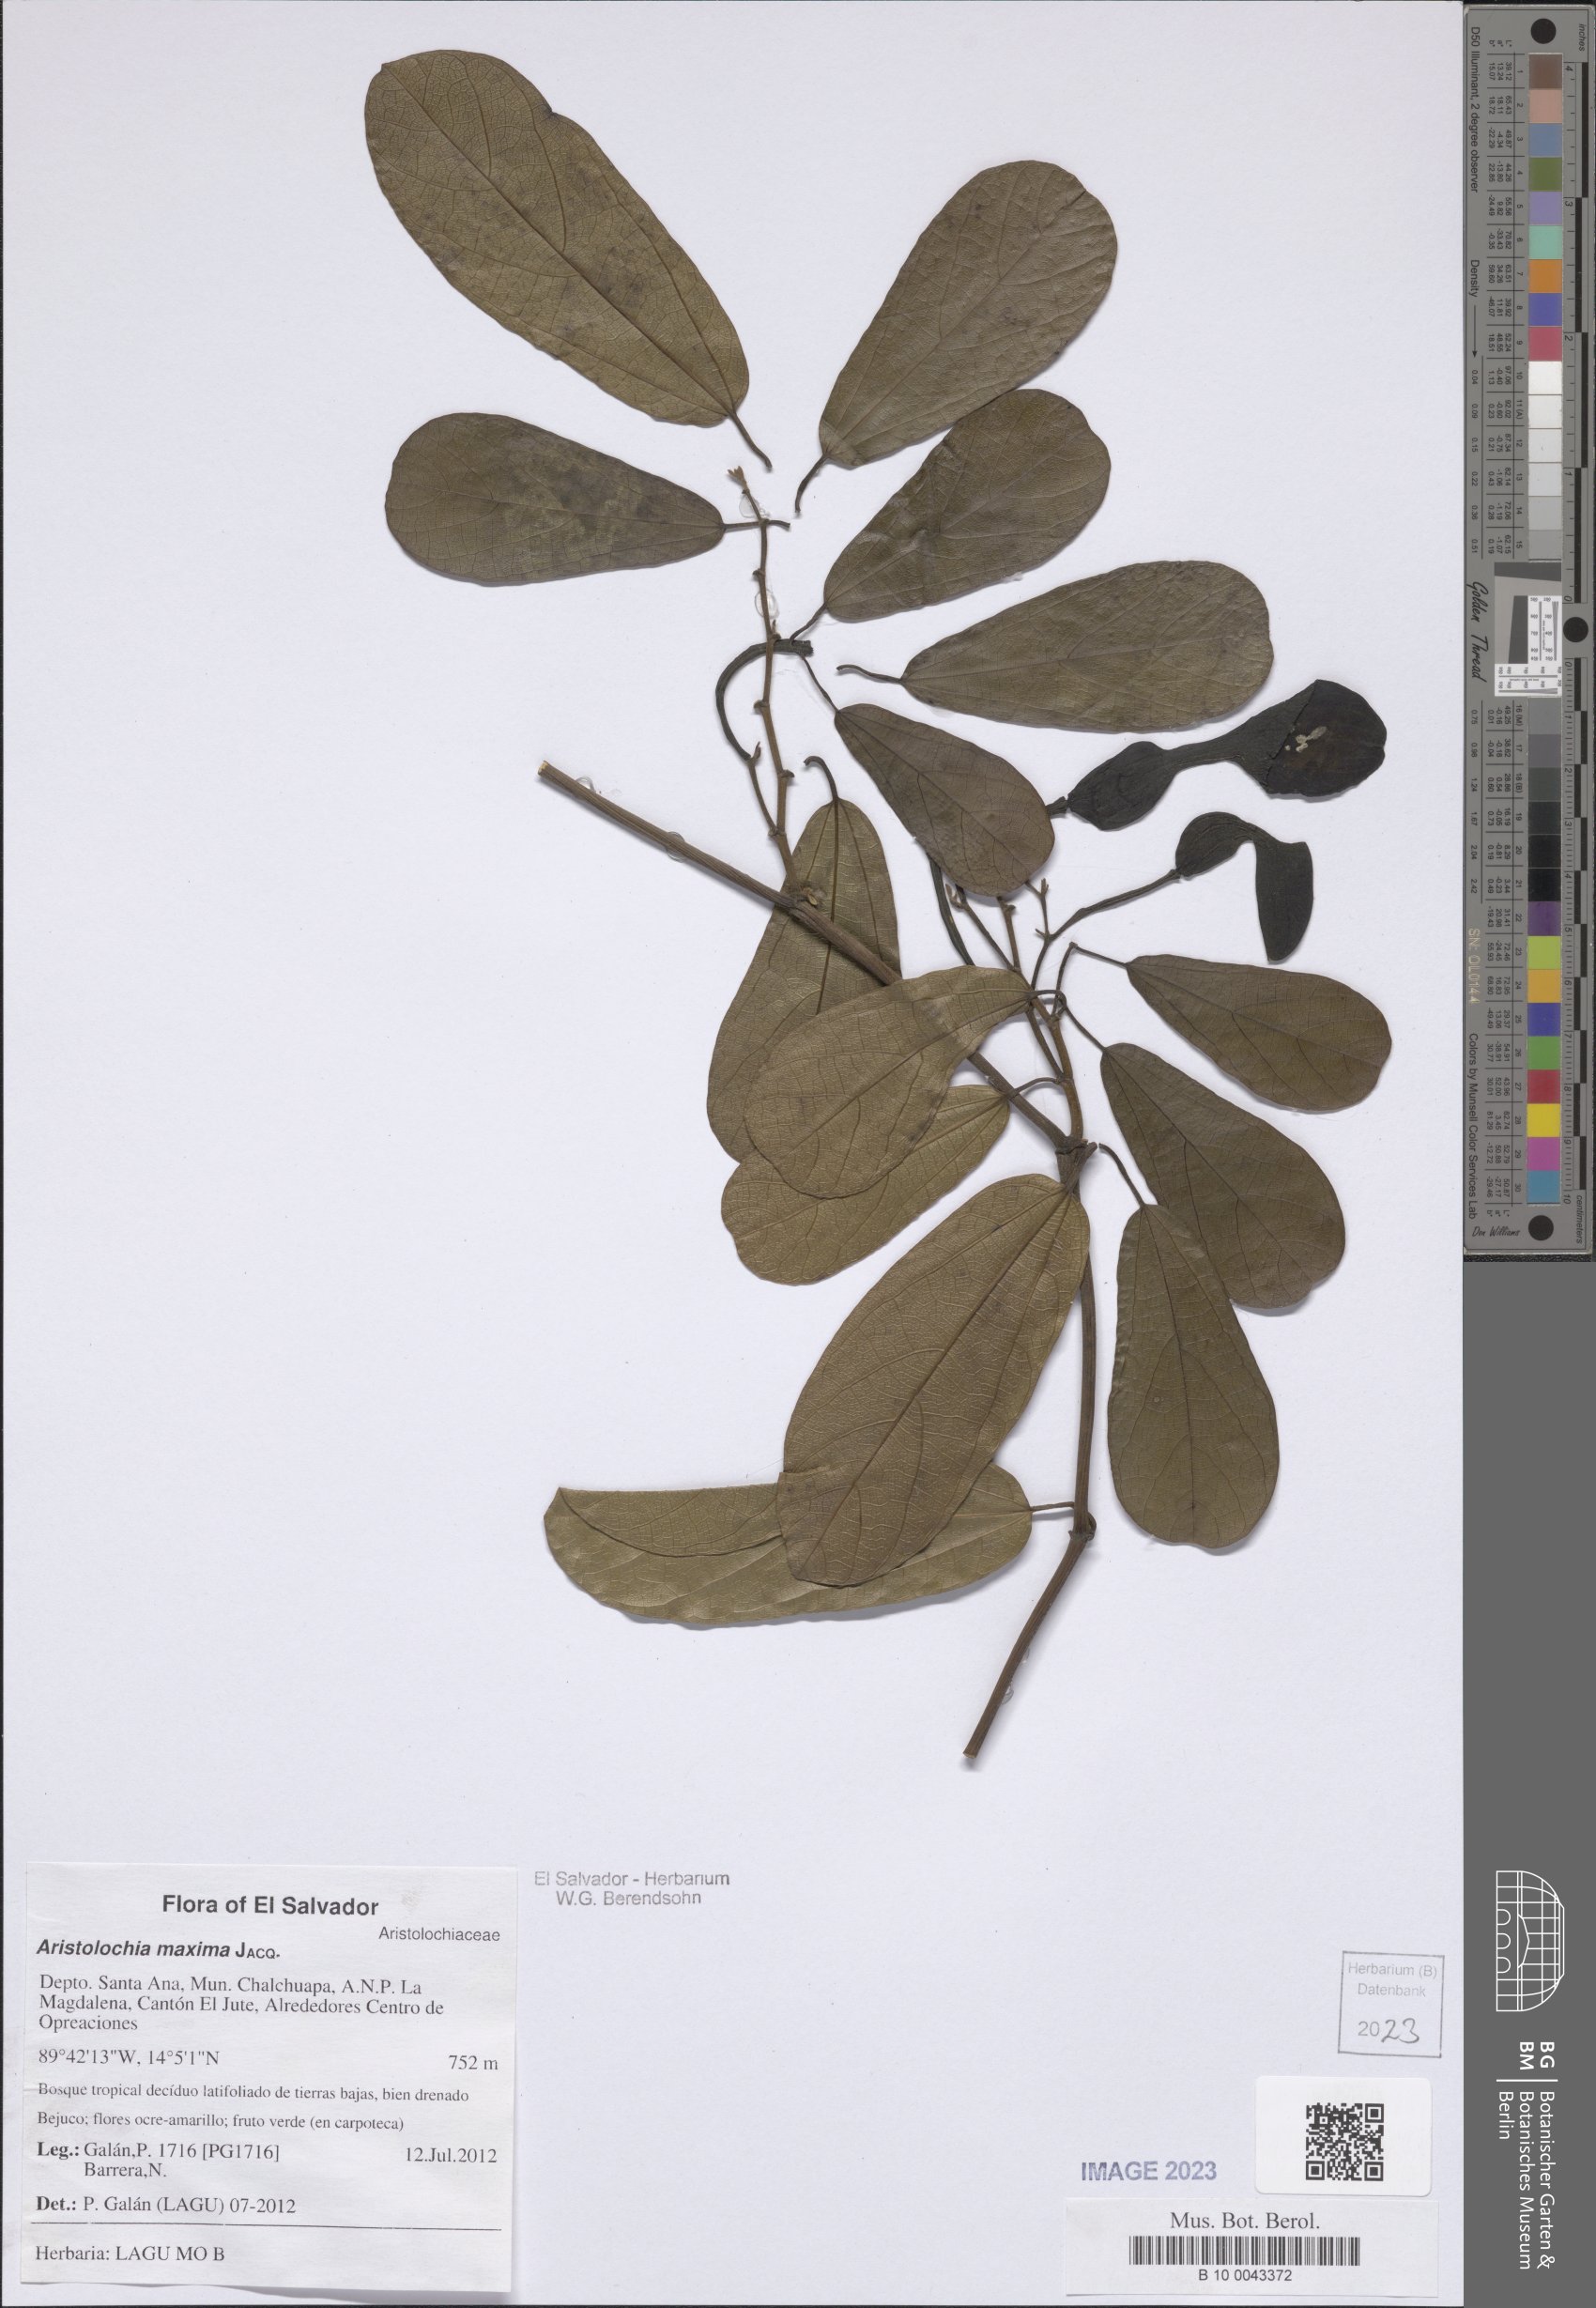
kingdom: Plantae
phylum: Tracheophyta
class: Magnoliopsida
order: Piperales
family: Aristolochiaceae
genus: Aristolochia
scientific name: Aristolochia maxima
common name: Florida dutchman's pipe
